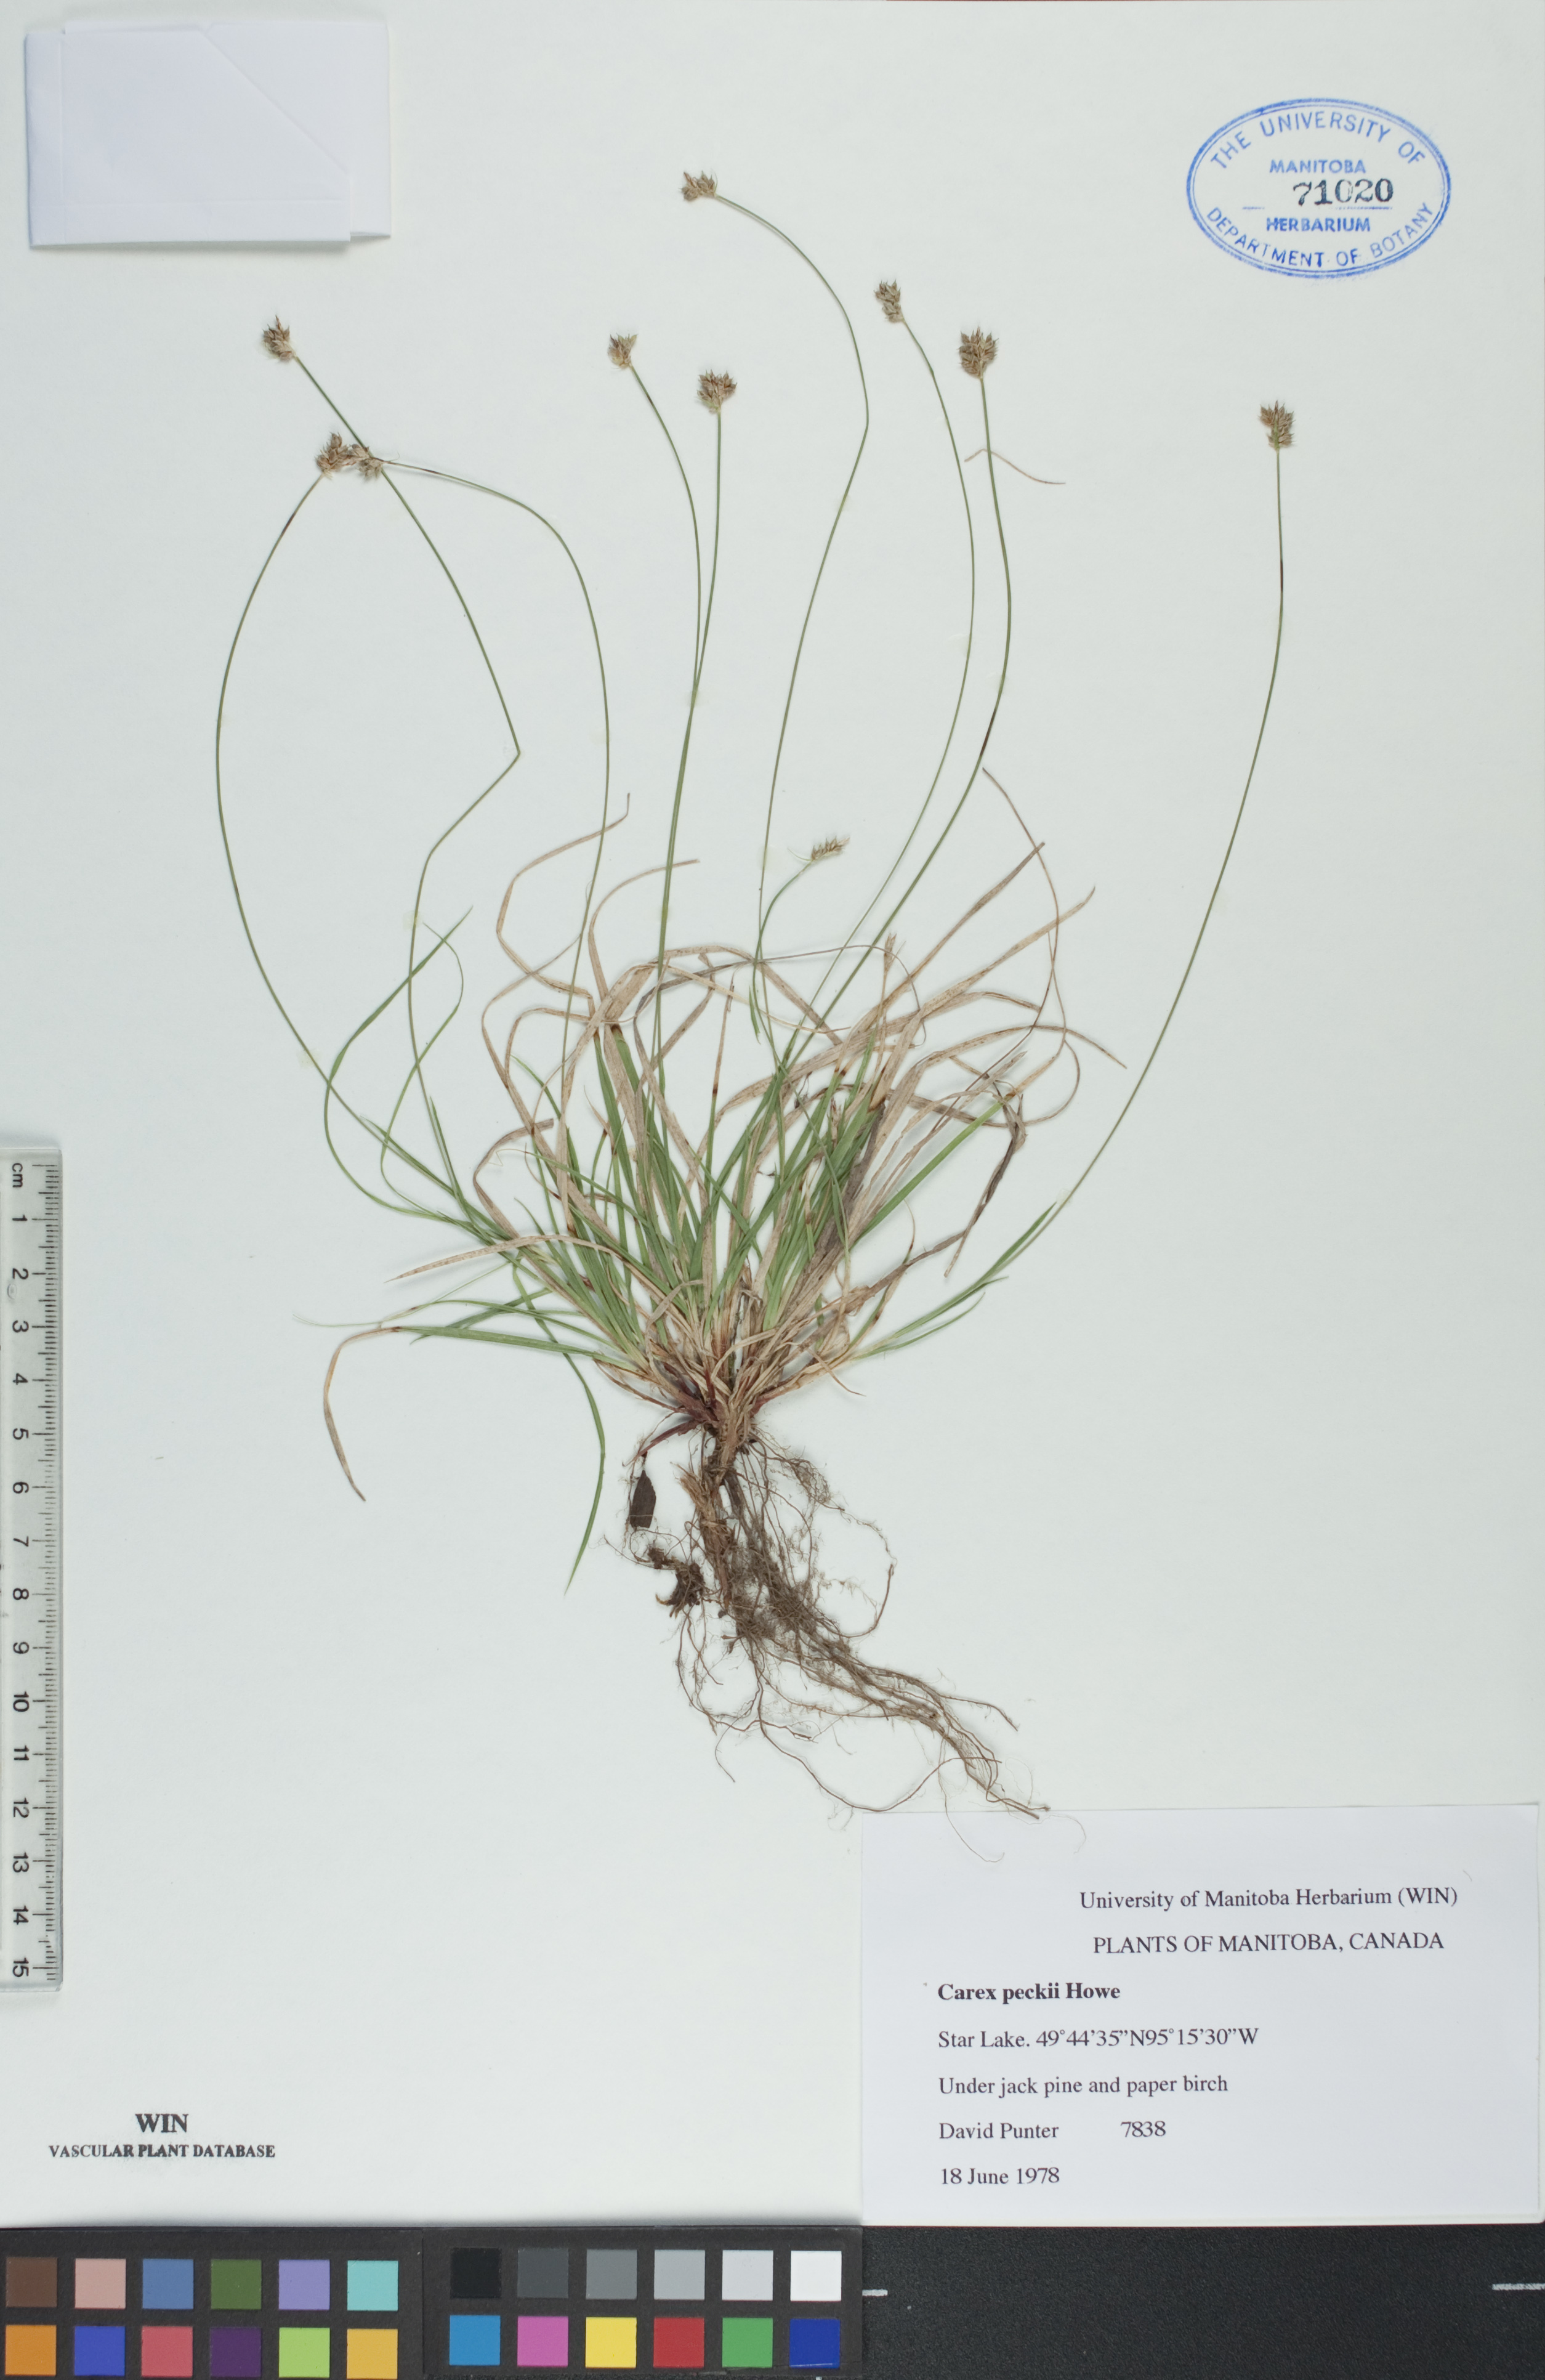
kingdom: Plantae
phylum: Tracheophyta
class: Liliopsida
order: Poales
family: Cyperaceae
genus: Carex
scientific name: Carex peckii
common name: Peck's oak sedge
